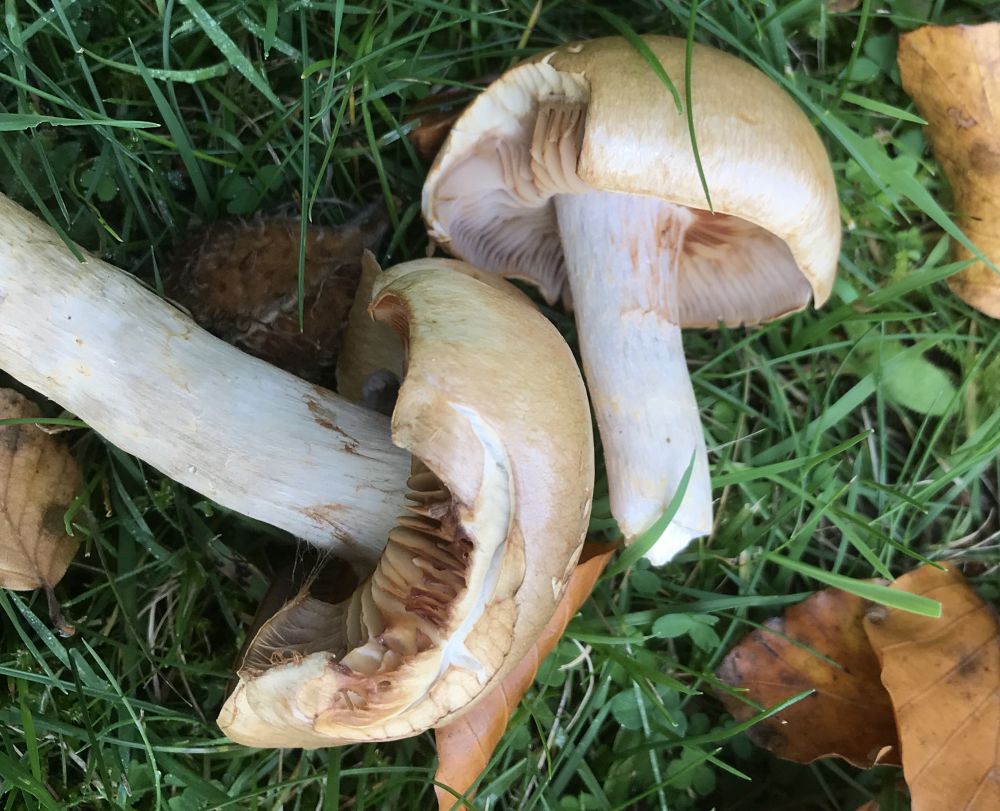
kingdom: Fungi
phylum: Basidiomycota
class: Agaricomycetes
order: Agaricales
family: Cortinariaceae
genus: Cortinarius
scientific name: Cortinarius
